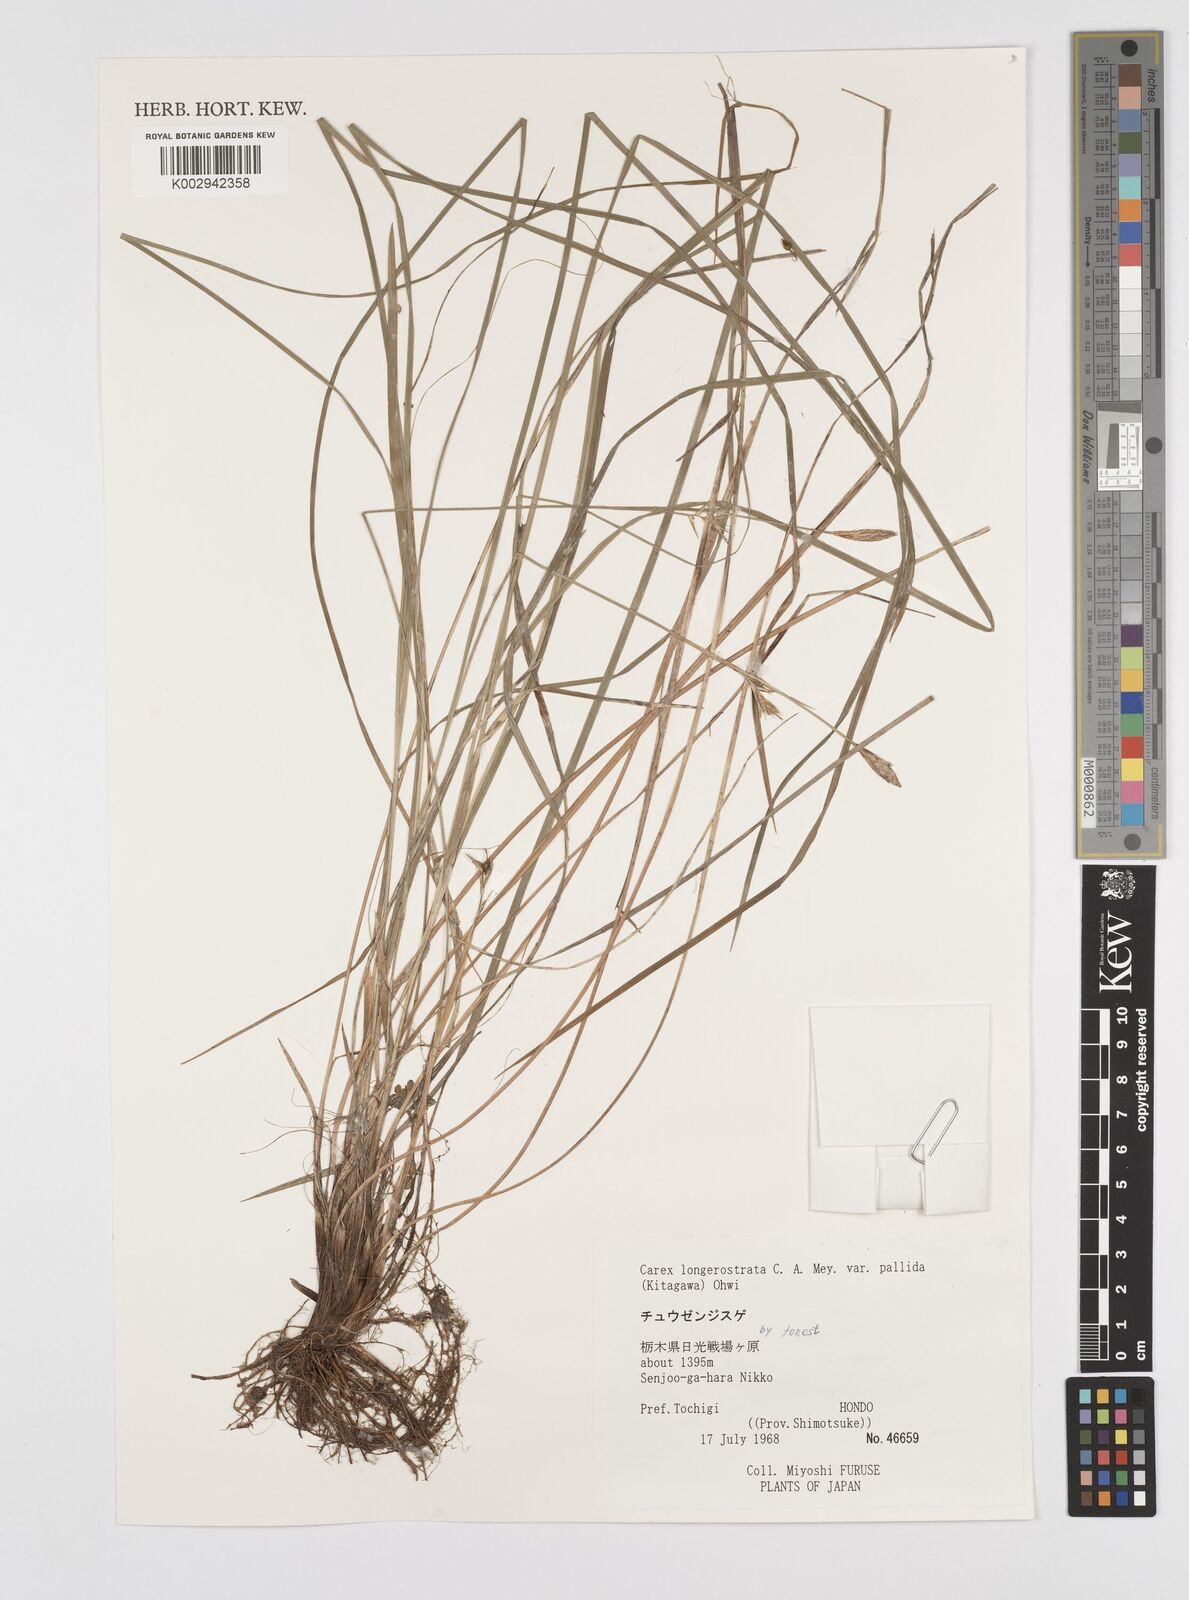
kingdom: Plantae
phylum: Tracheophyta
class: Liliopsida
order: Poales
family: Cyperaceae
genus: Carex
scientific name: Carex longerostrata
